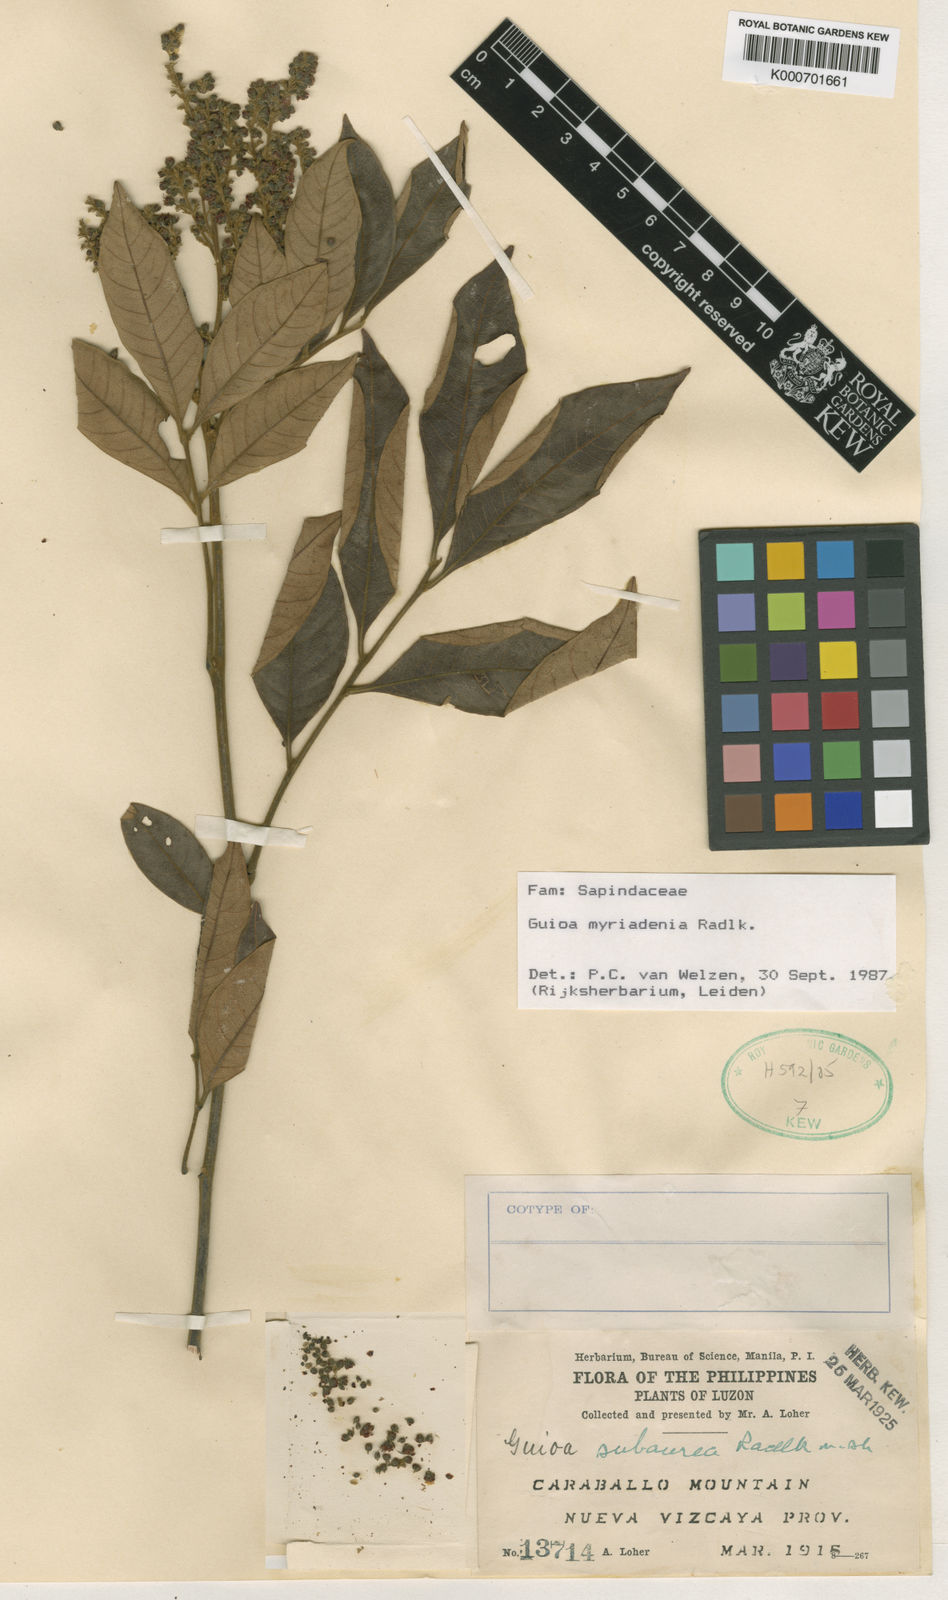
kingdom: Plantae
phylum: Tracheophyta
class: Magnoliopsida
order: Sapindales
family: Sapindaceae
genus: Guioa
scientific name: Guioa myriadenia
